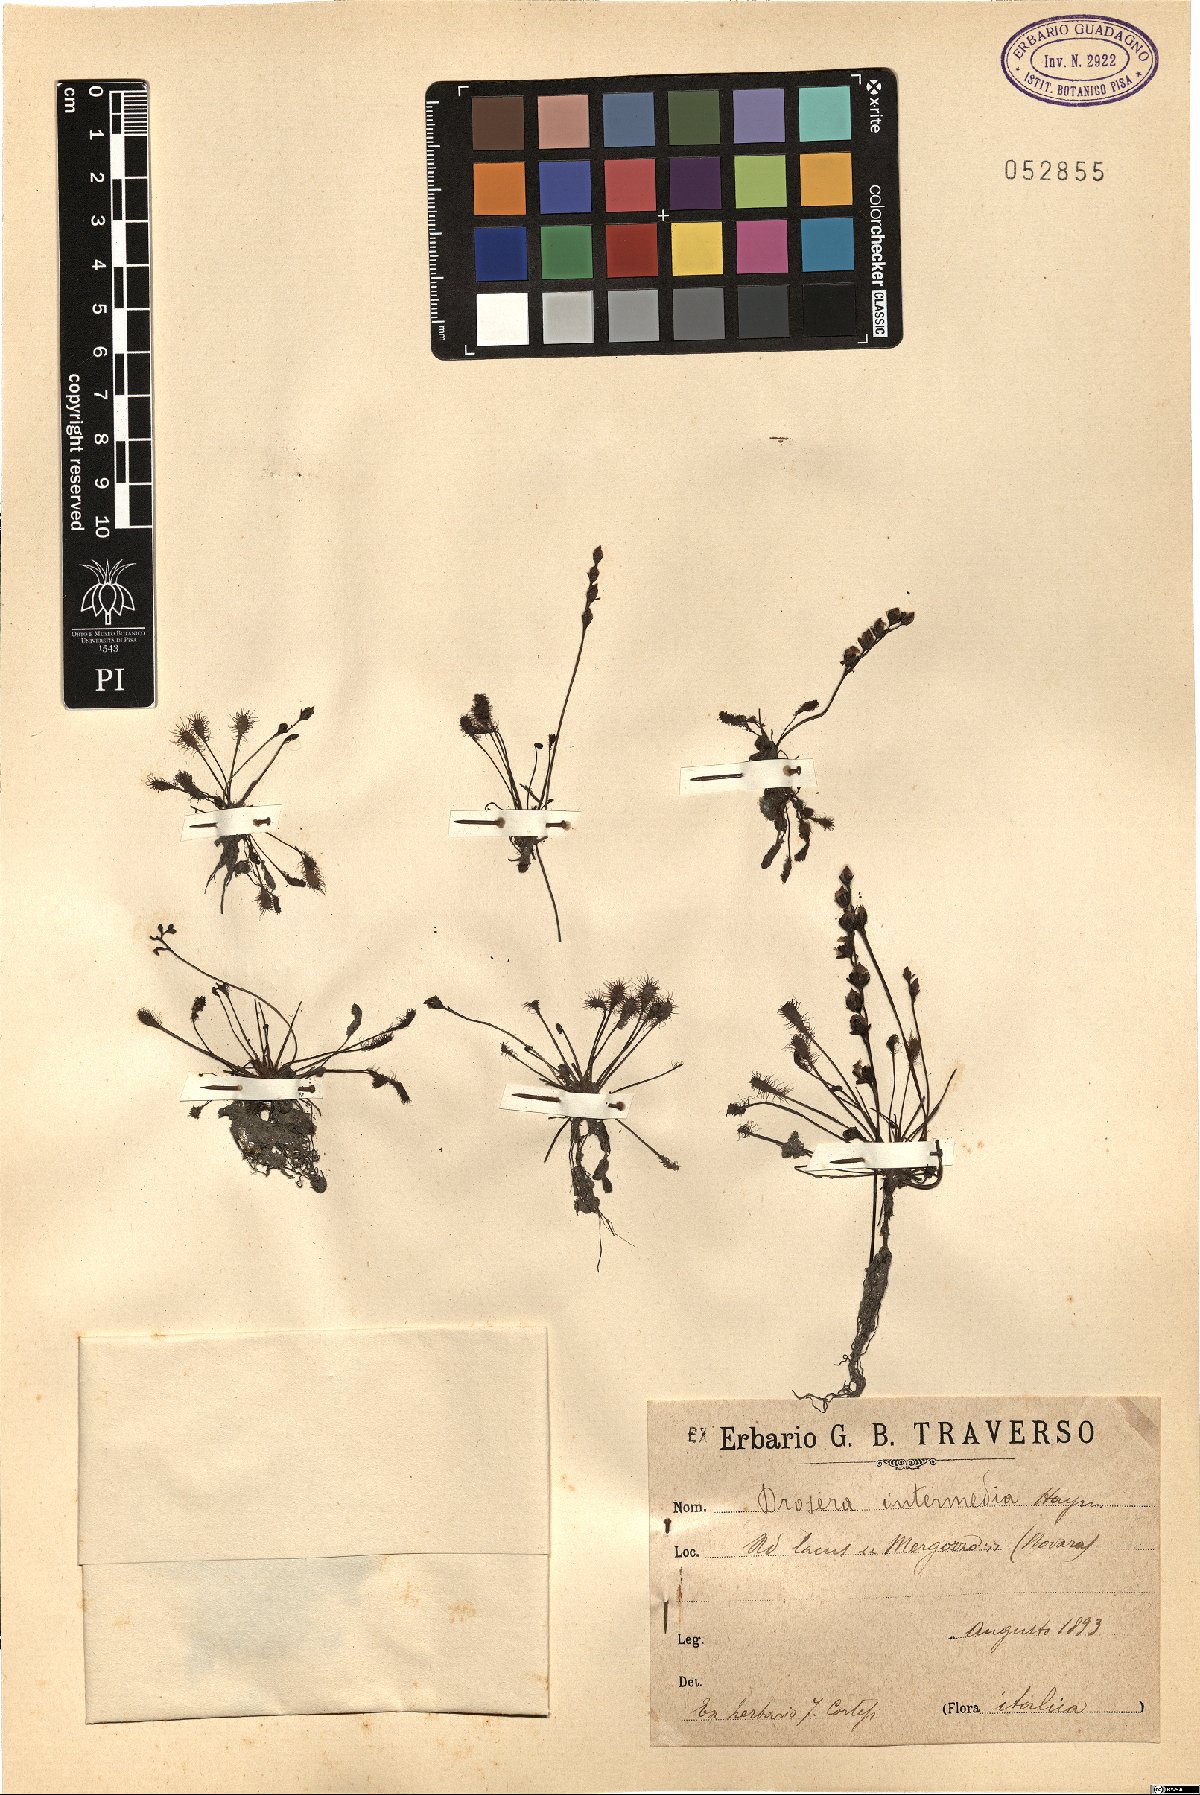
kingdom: Plantae
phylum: Tracheophyta
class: Magnoliopsida
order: Caryophyllales
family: Droseraceae
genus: Drosera
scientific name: Drosera intermedia
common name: Oblong-leaved sundew
